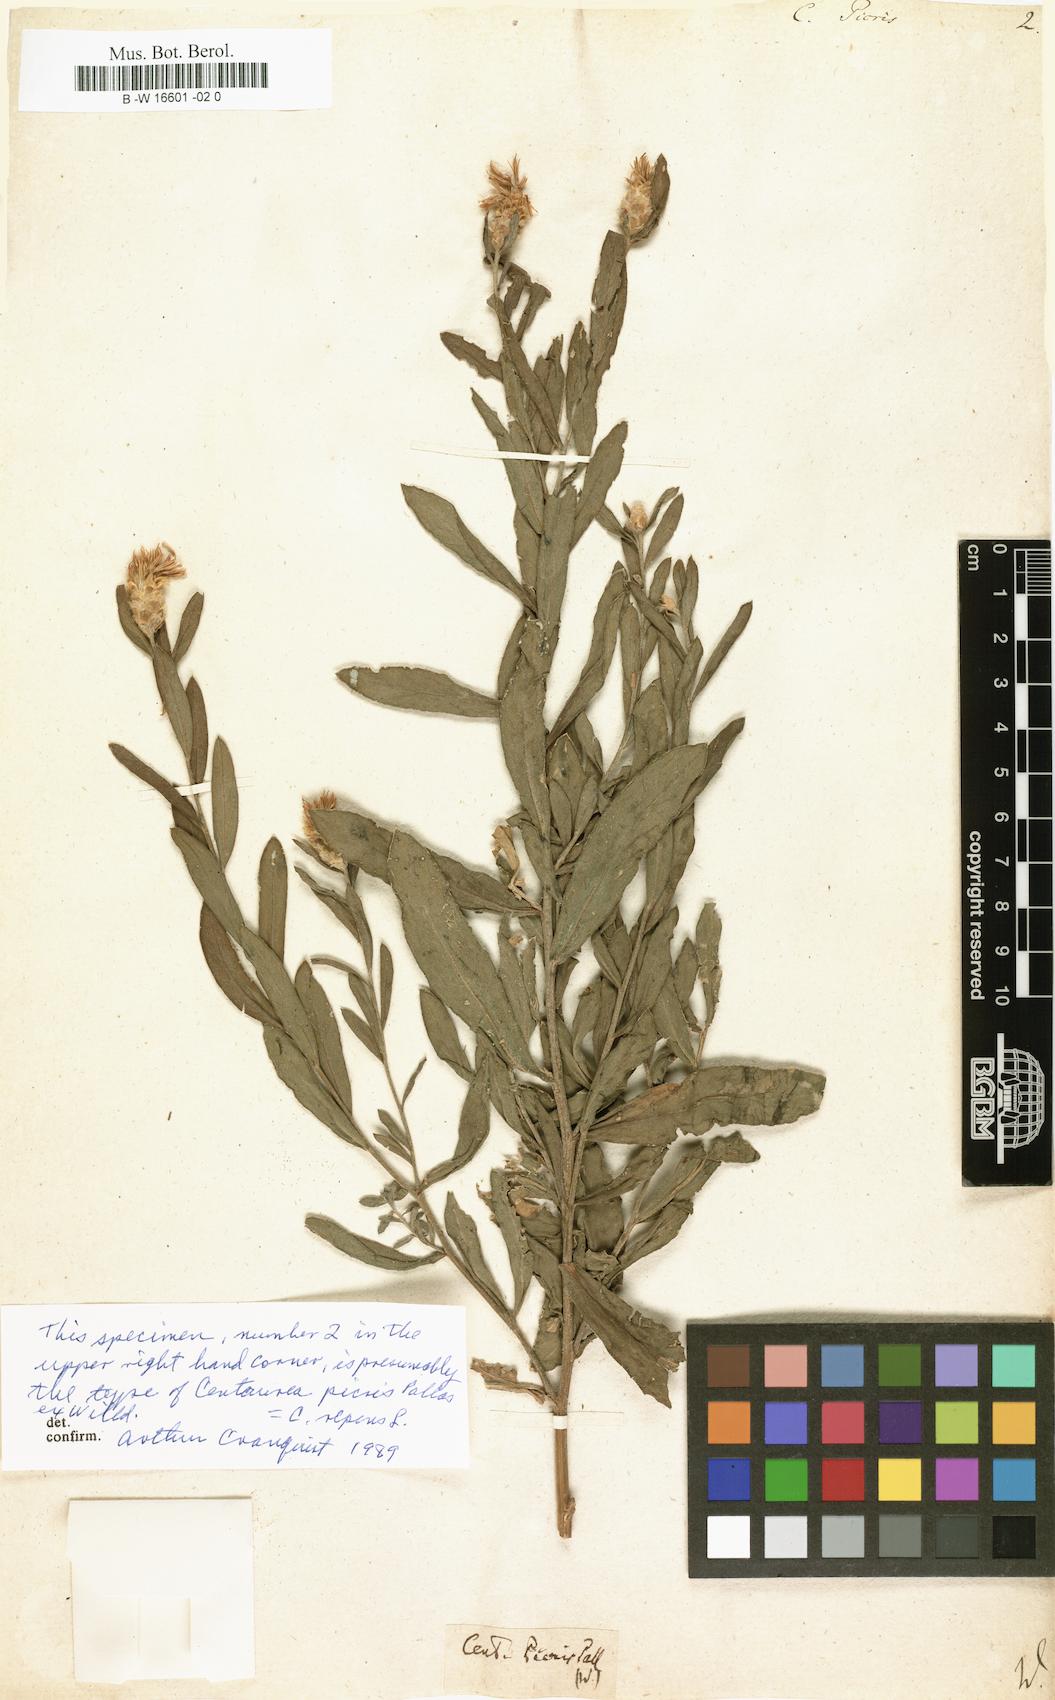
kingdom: Plantae
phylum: Tracheophyta
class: Magnoliopsida
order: Asterales
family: Asteraceae
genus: Leuzea
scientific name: Leuzea repens
